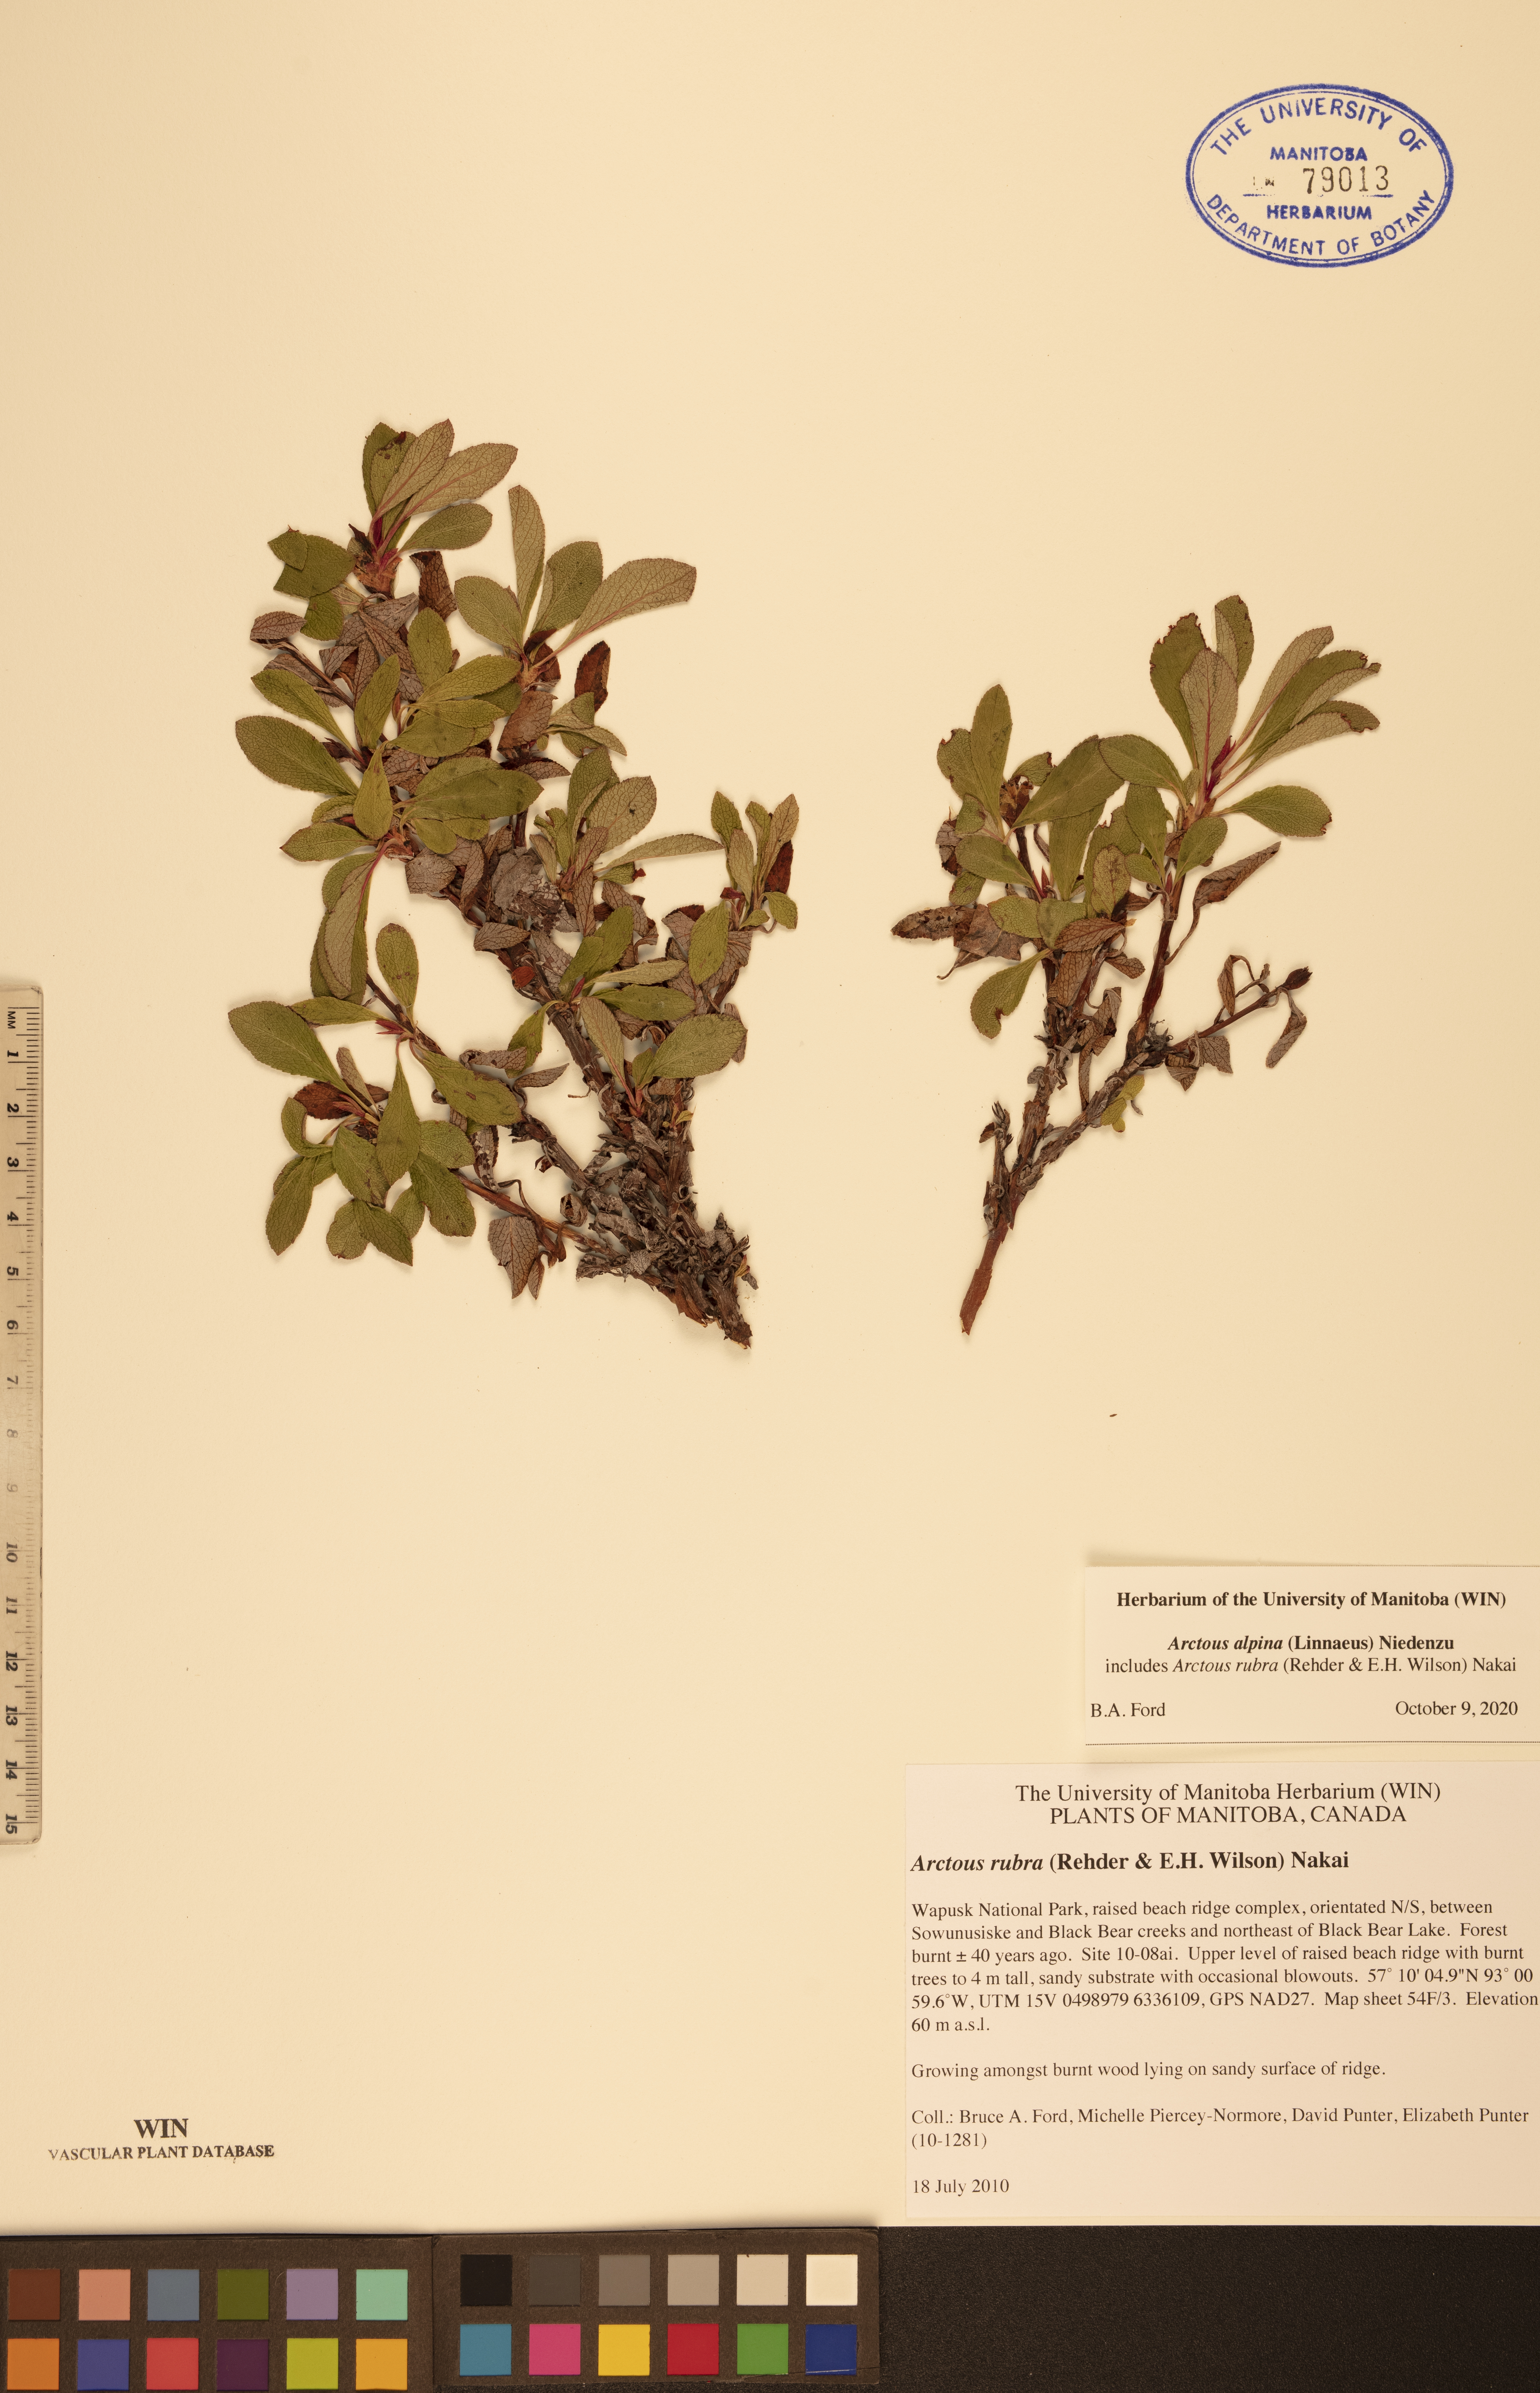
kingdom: Plantae
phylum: Tracheophyta
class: Magnoliopsida
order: Ericales
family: Ericaceae
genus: Arctostaphylos
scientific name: Arctostaphylos alpinus
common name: Alpine bearberry
